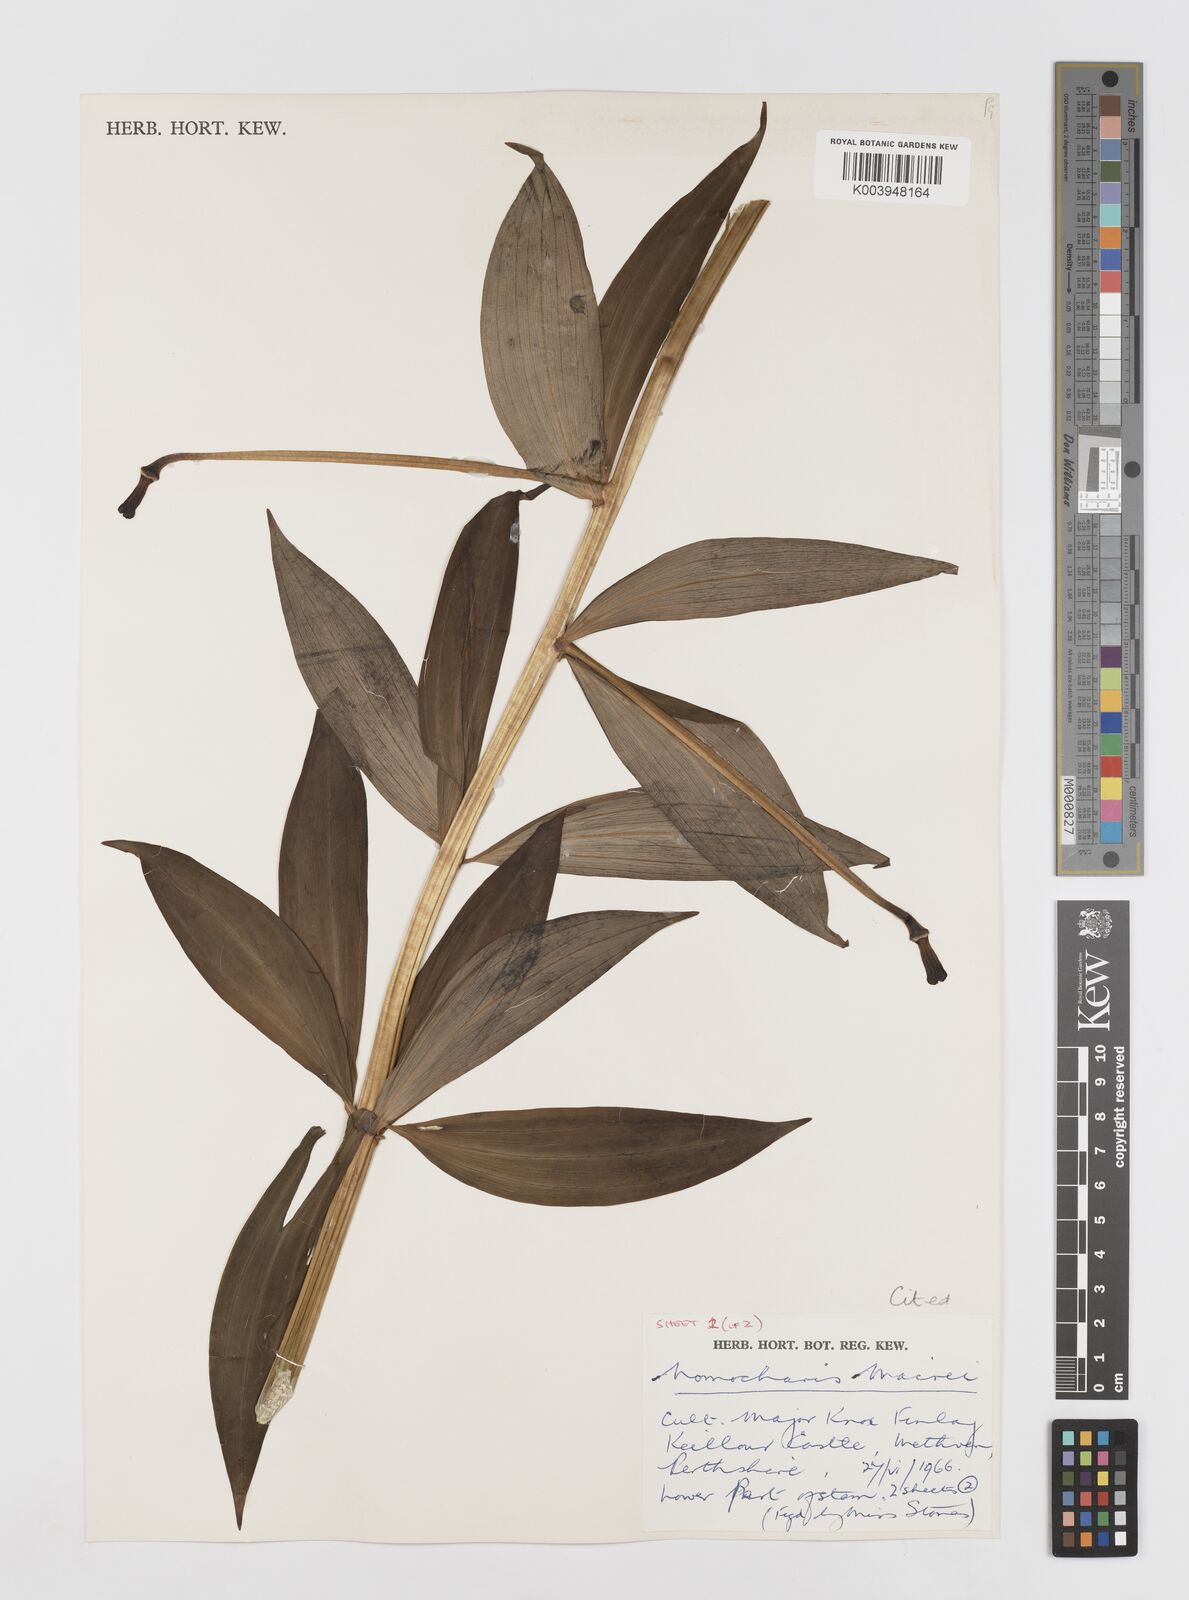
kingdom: Plantae
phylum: Tracheophyta
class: Liliopsida
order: Liliales
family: Liliaceae
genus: Lilium
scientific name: Lilium pardanthinum
